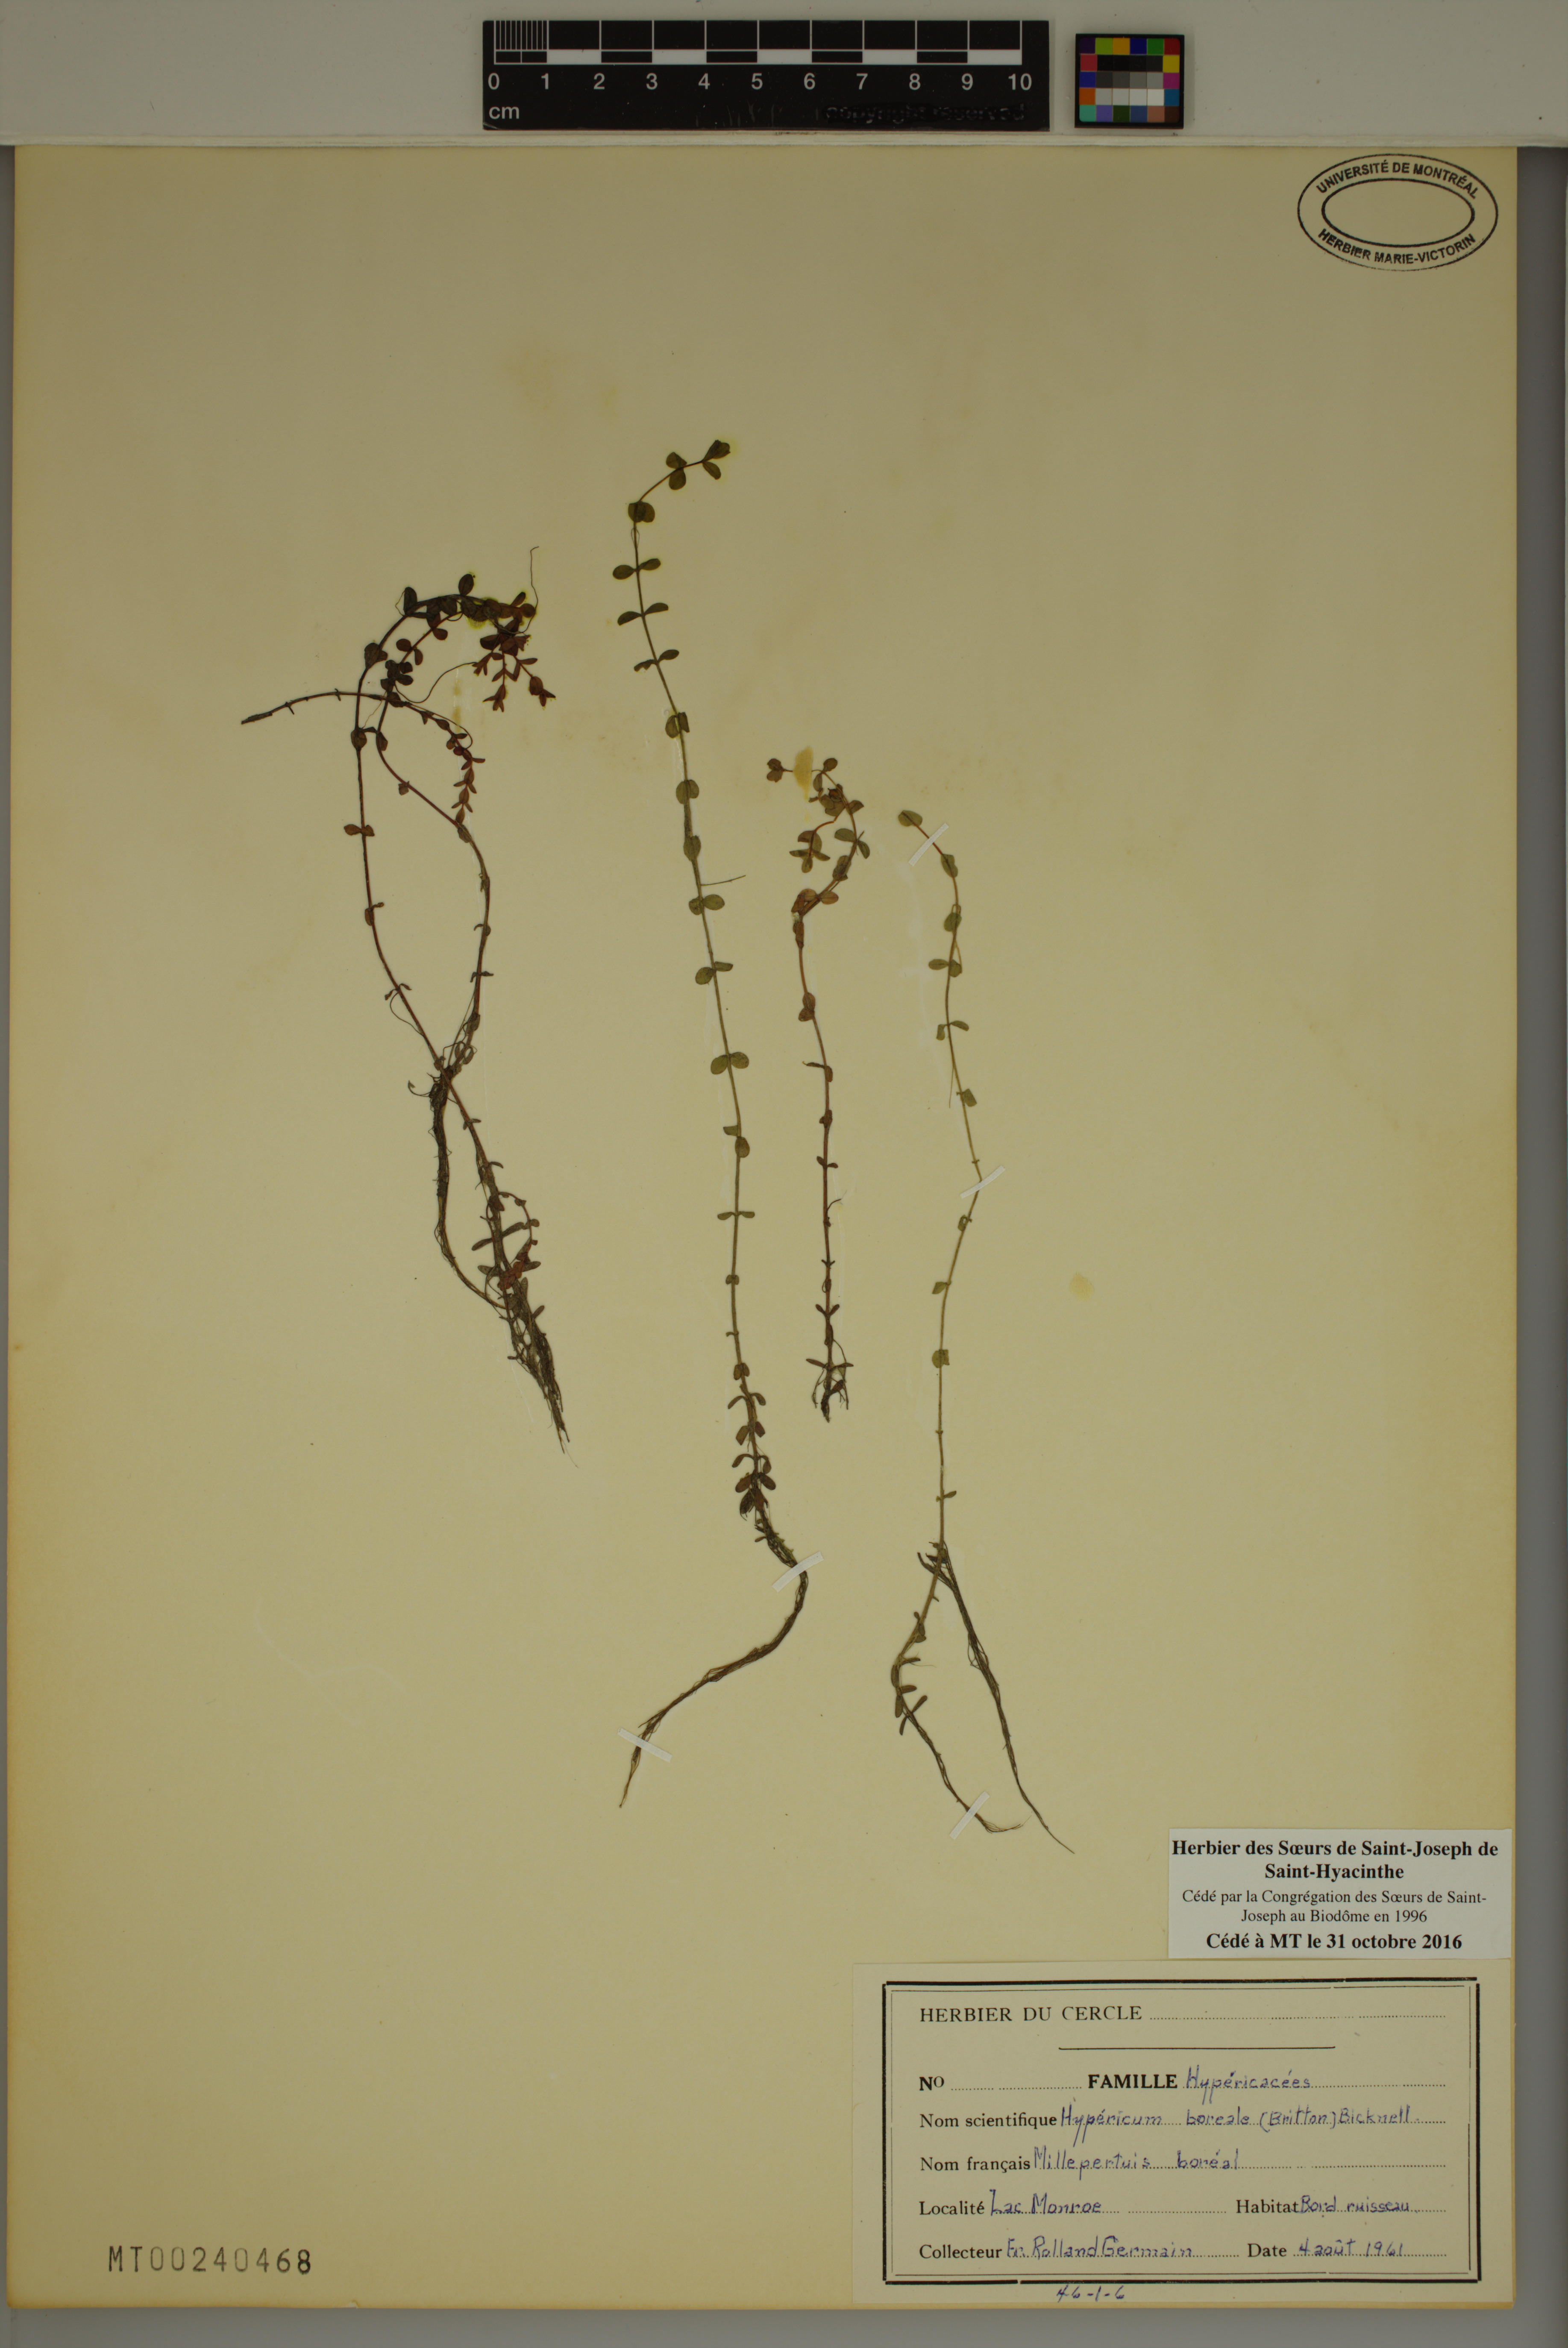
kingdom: Plantae
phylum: Tracheophyta
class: Magnoliopsida
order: Malpighiales
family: Hypericaceae
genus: Hypericum
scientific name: Hypericum boreale
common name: Northern bog st. john's-wort
